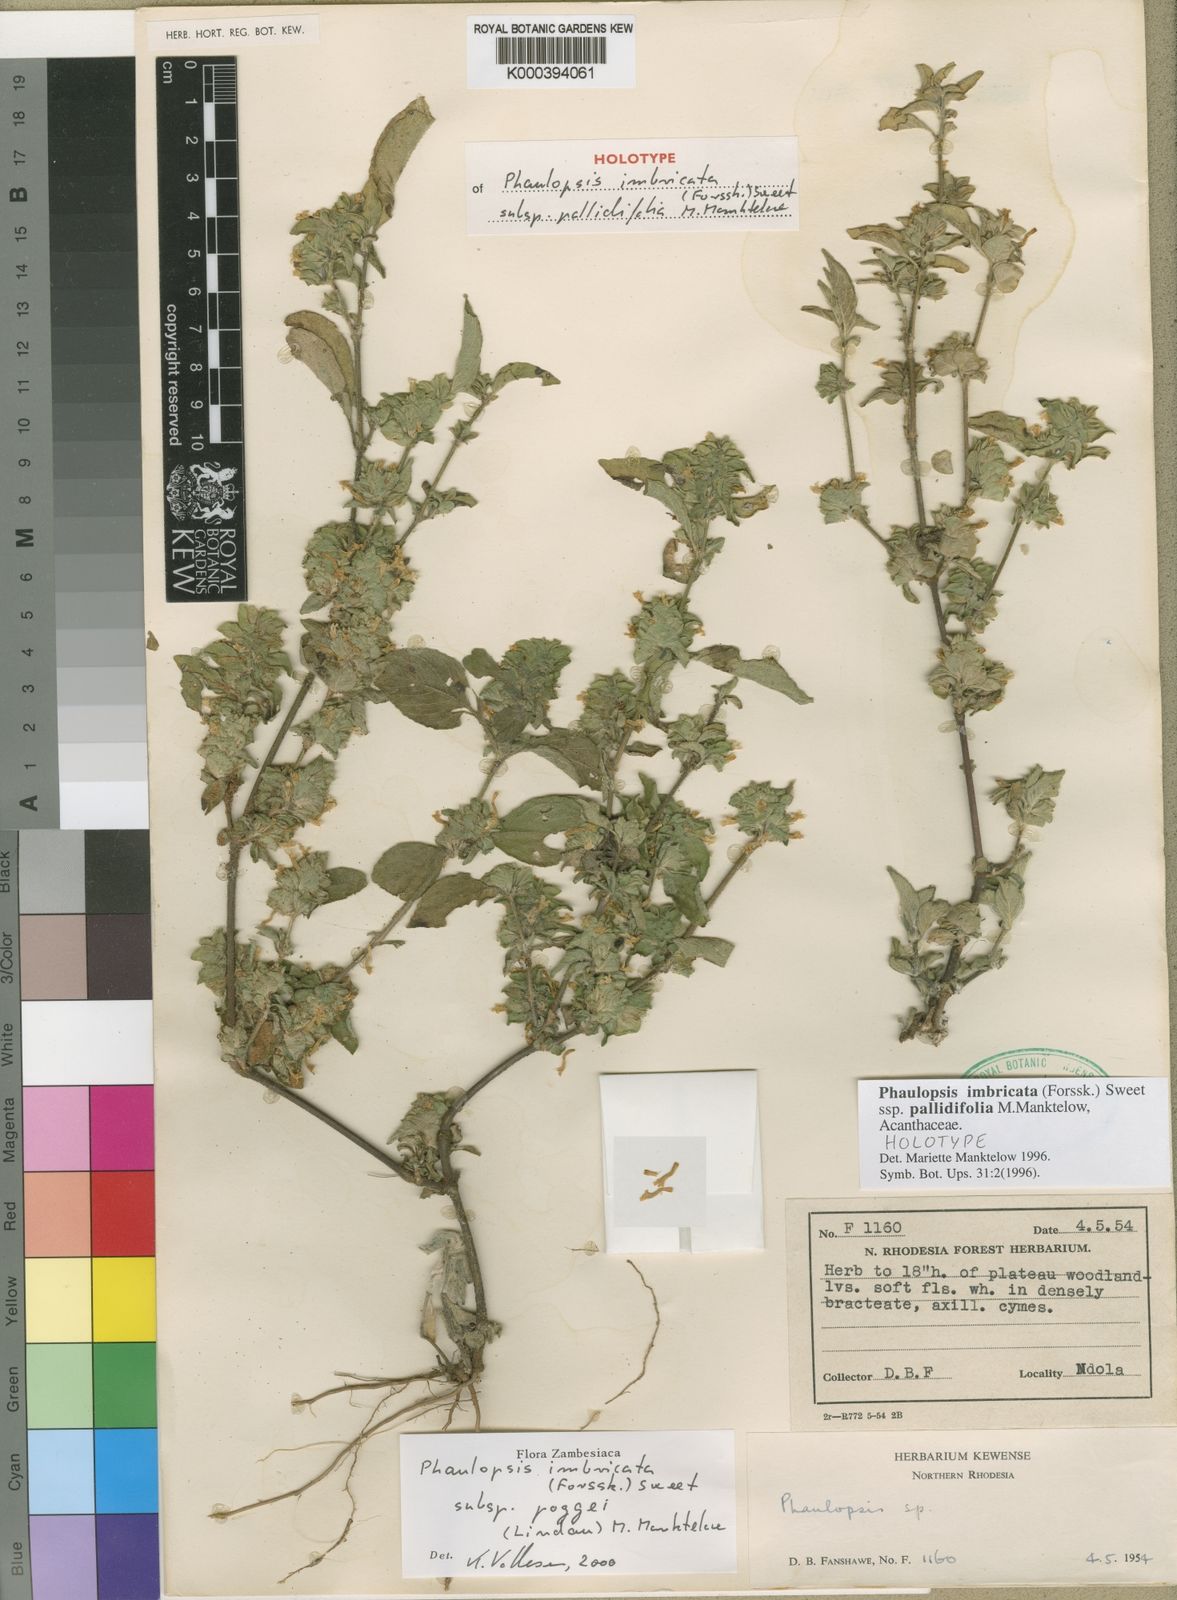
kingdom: Plantae
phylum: Tracheophyta
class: Magnoliopsida
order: Lamiales
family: Acanthaceae
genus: Phaulopsis
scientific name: Phaulopsis imbricata
